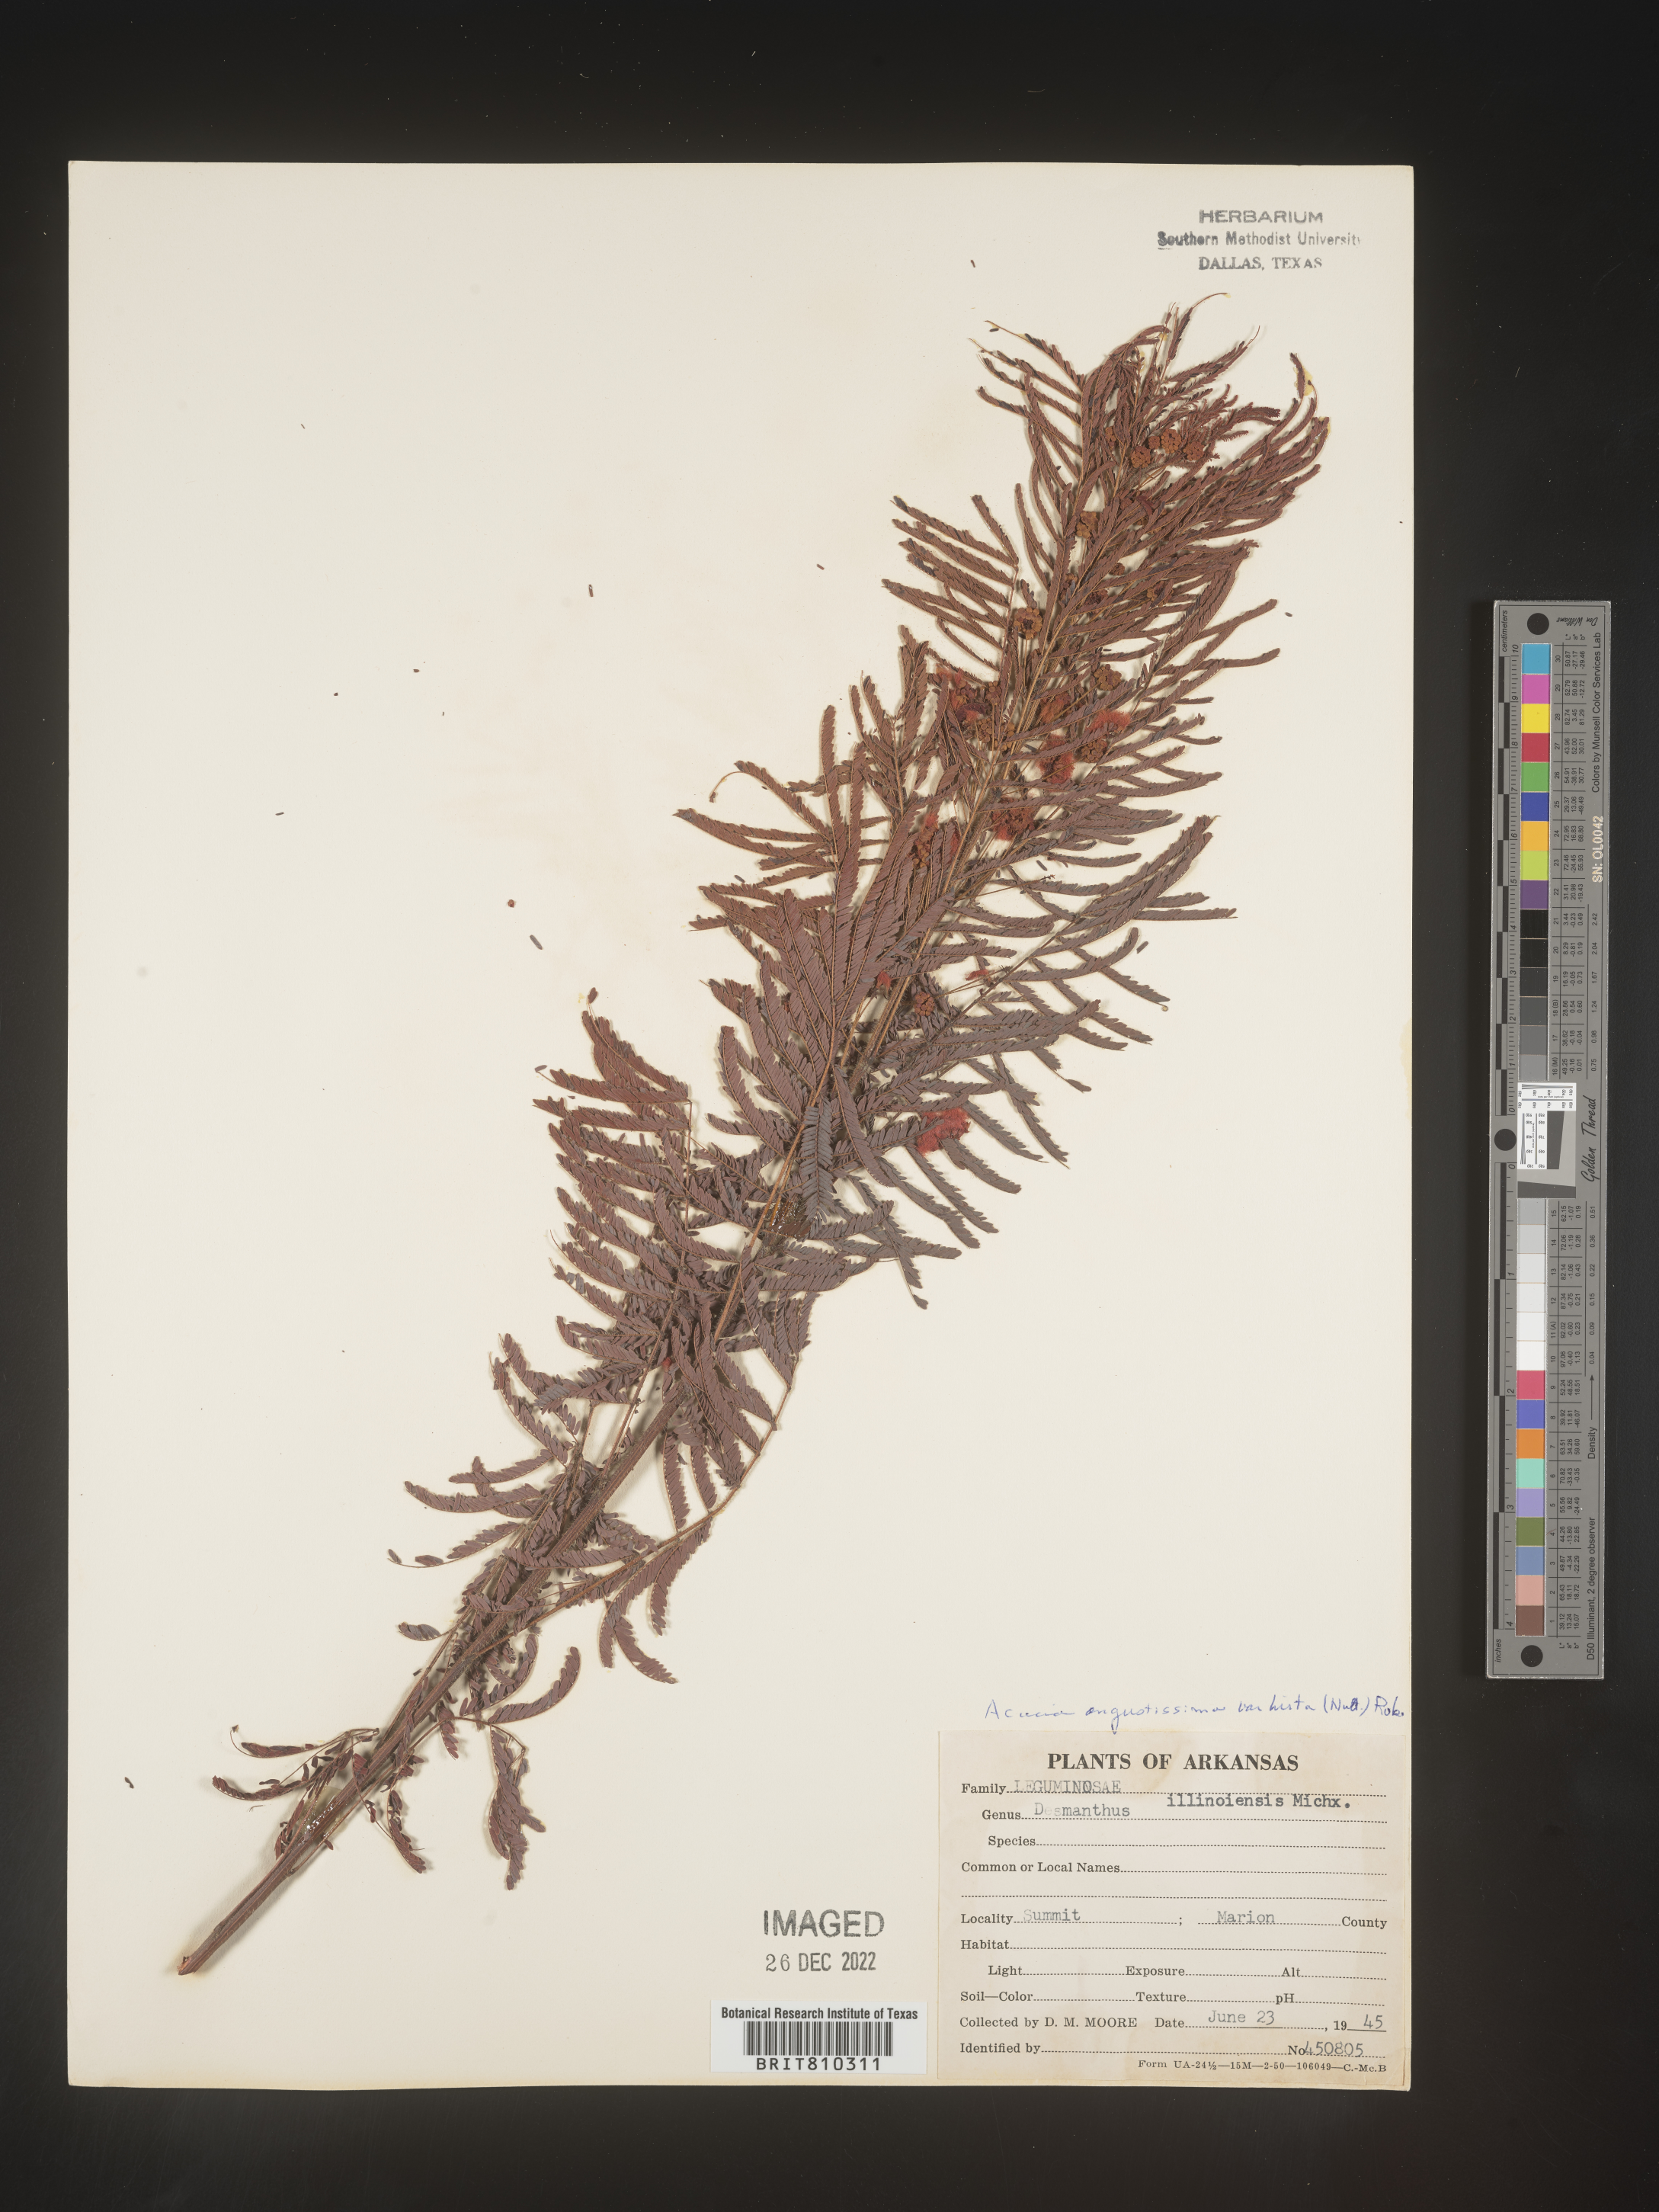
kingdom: Plantae
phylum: Tracheophyta
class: Magnoliopsida
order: Fabales
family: Fabaceae
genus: Acaciella
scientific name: Acaciella angustissima
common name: Prairie acacia
